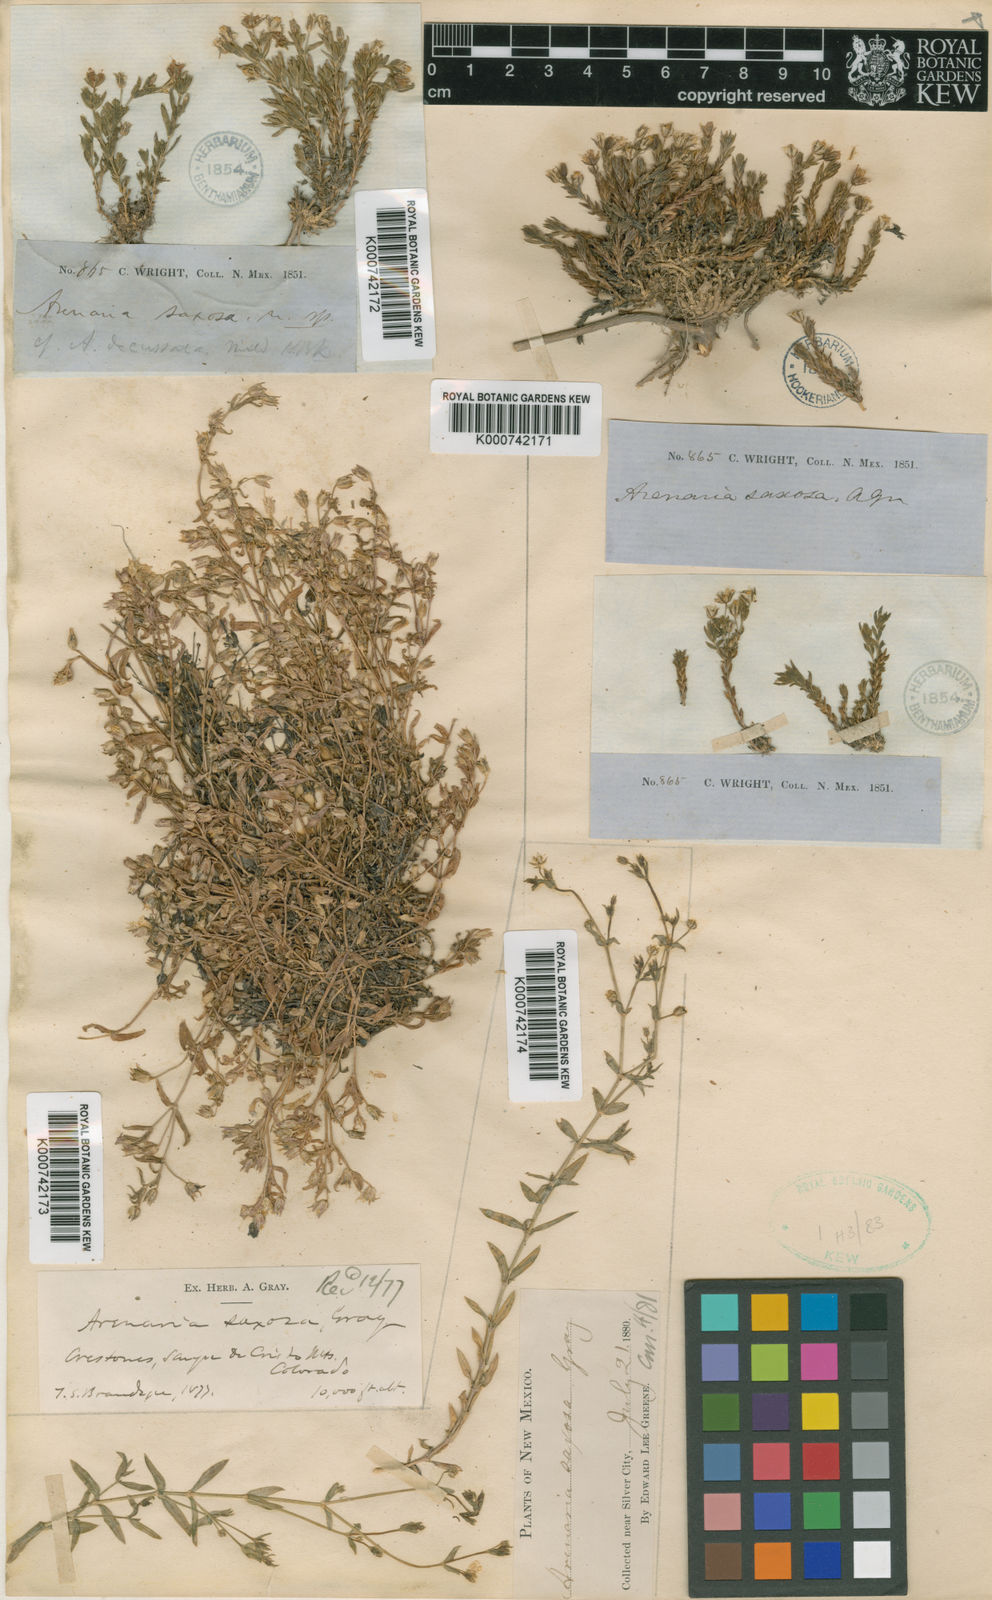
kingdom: Plantae
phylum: Tracheophyta
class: Magnoliopsida
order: Caryophyllales
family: Caryophyllaceae
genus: Arenaria
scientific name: Arenaria lanuginosa
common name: Spread sandwort
